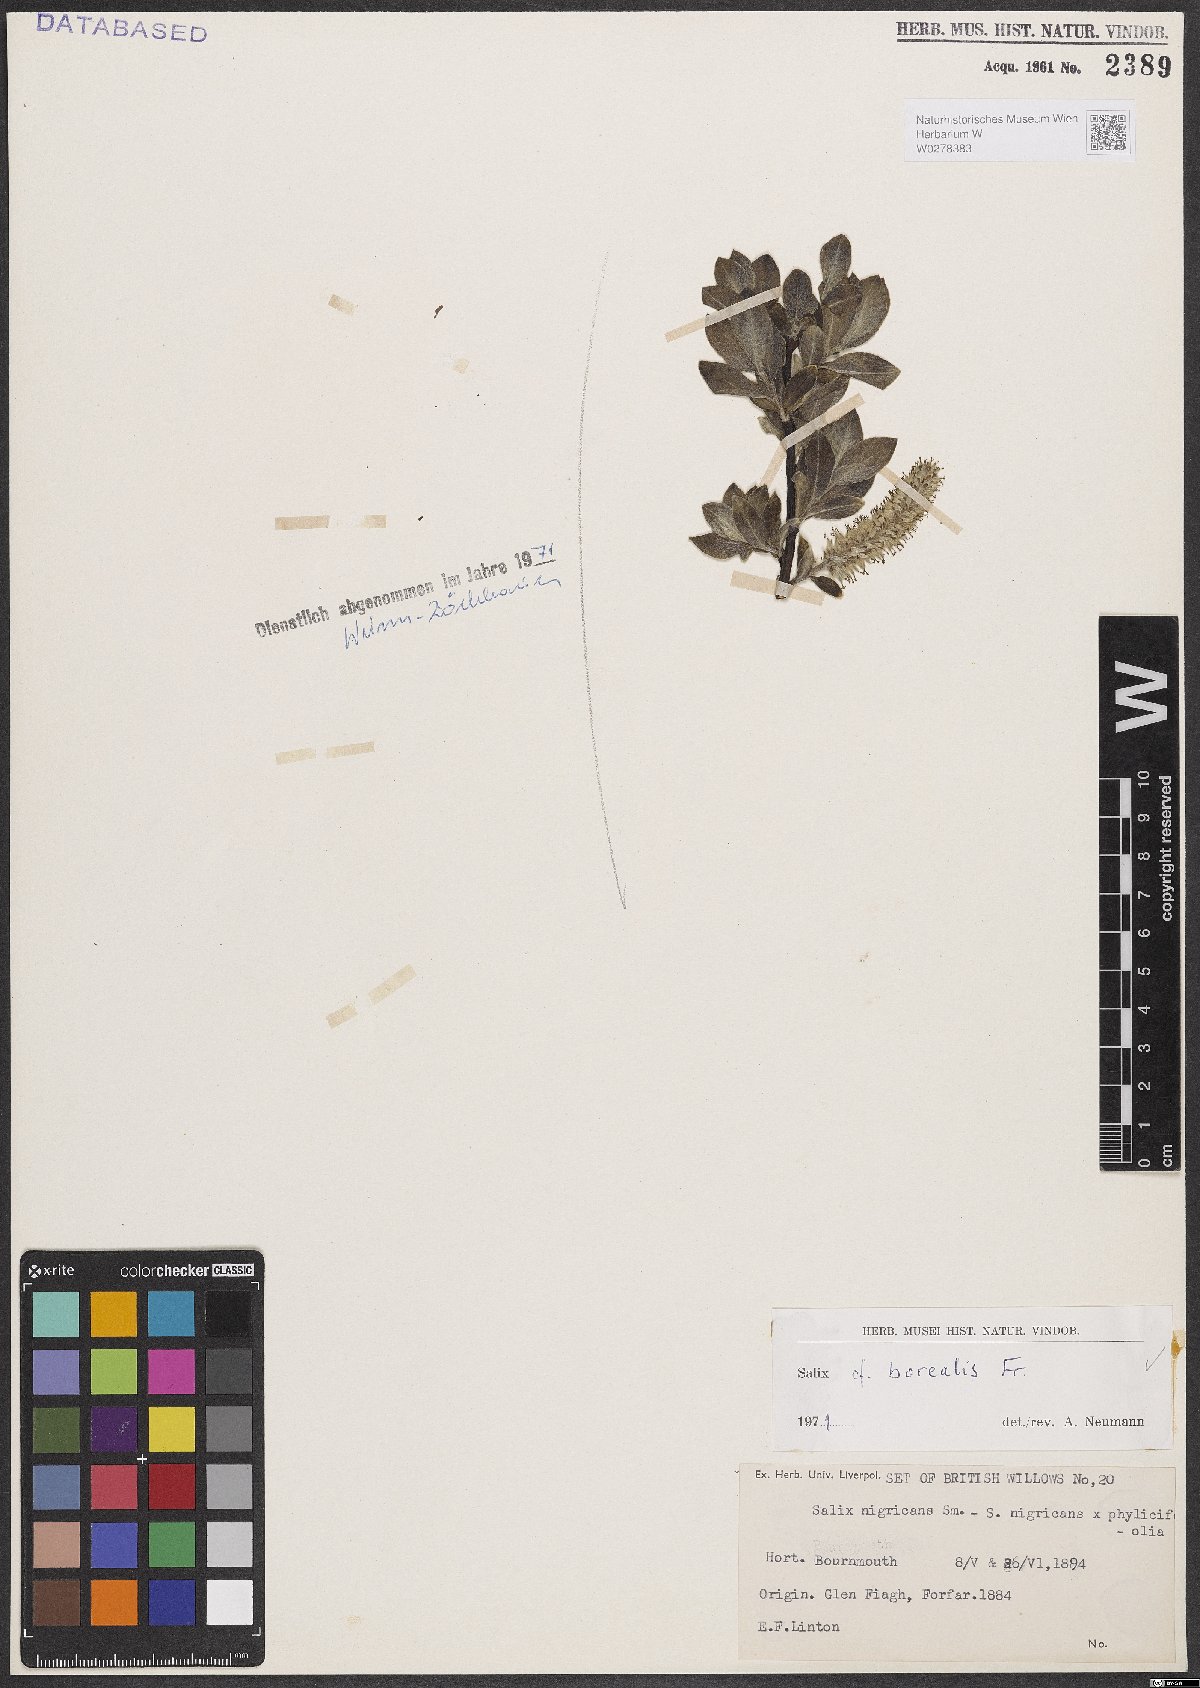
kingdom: Plantae
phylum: Tracheophyta
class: Magnoliopsida
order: Malpighiales
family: Salicaceae
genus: Salix
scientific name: Salix myrsinifolia
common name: Dark-leaved willow
